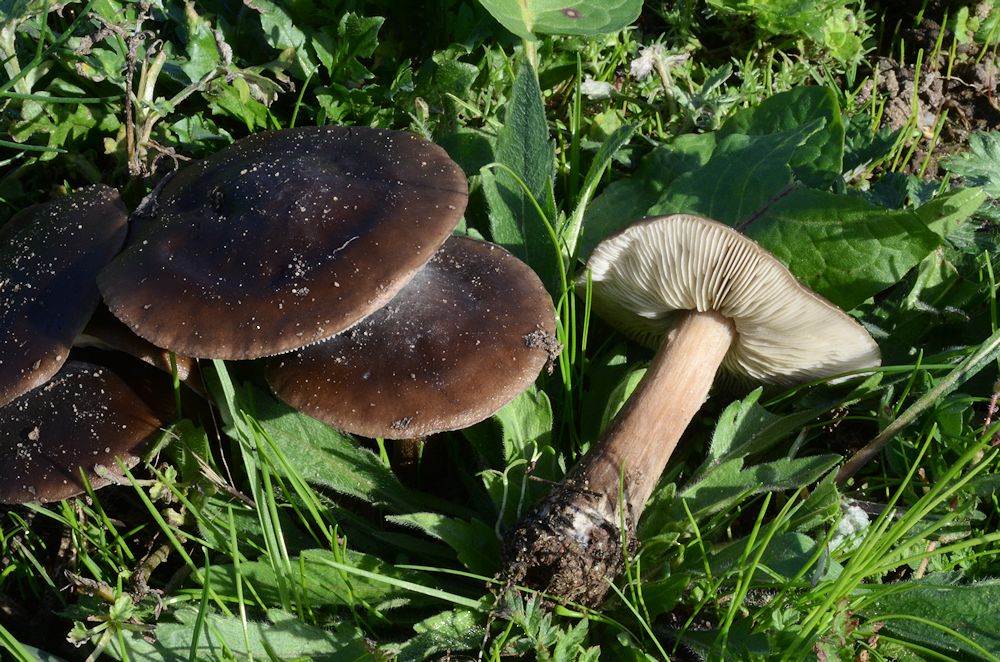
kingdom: Fungi
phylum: Basidiomycota
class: Agaricomycetes
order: Agaricales
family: Tricholomataceae
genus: Melanoleuca
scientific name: Melanoleuca polioleuca
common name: almindelig munkehat
